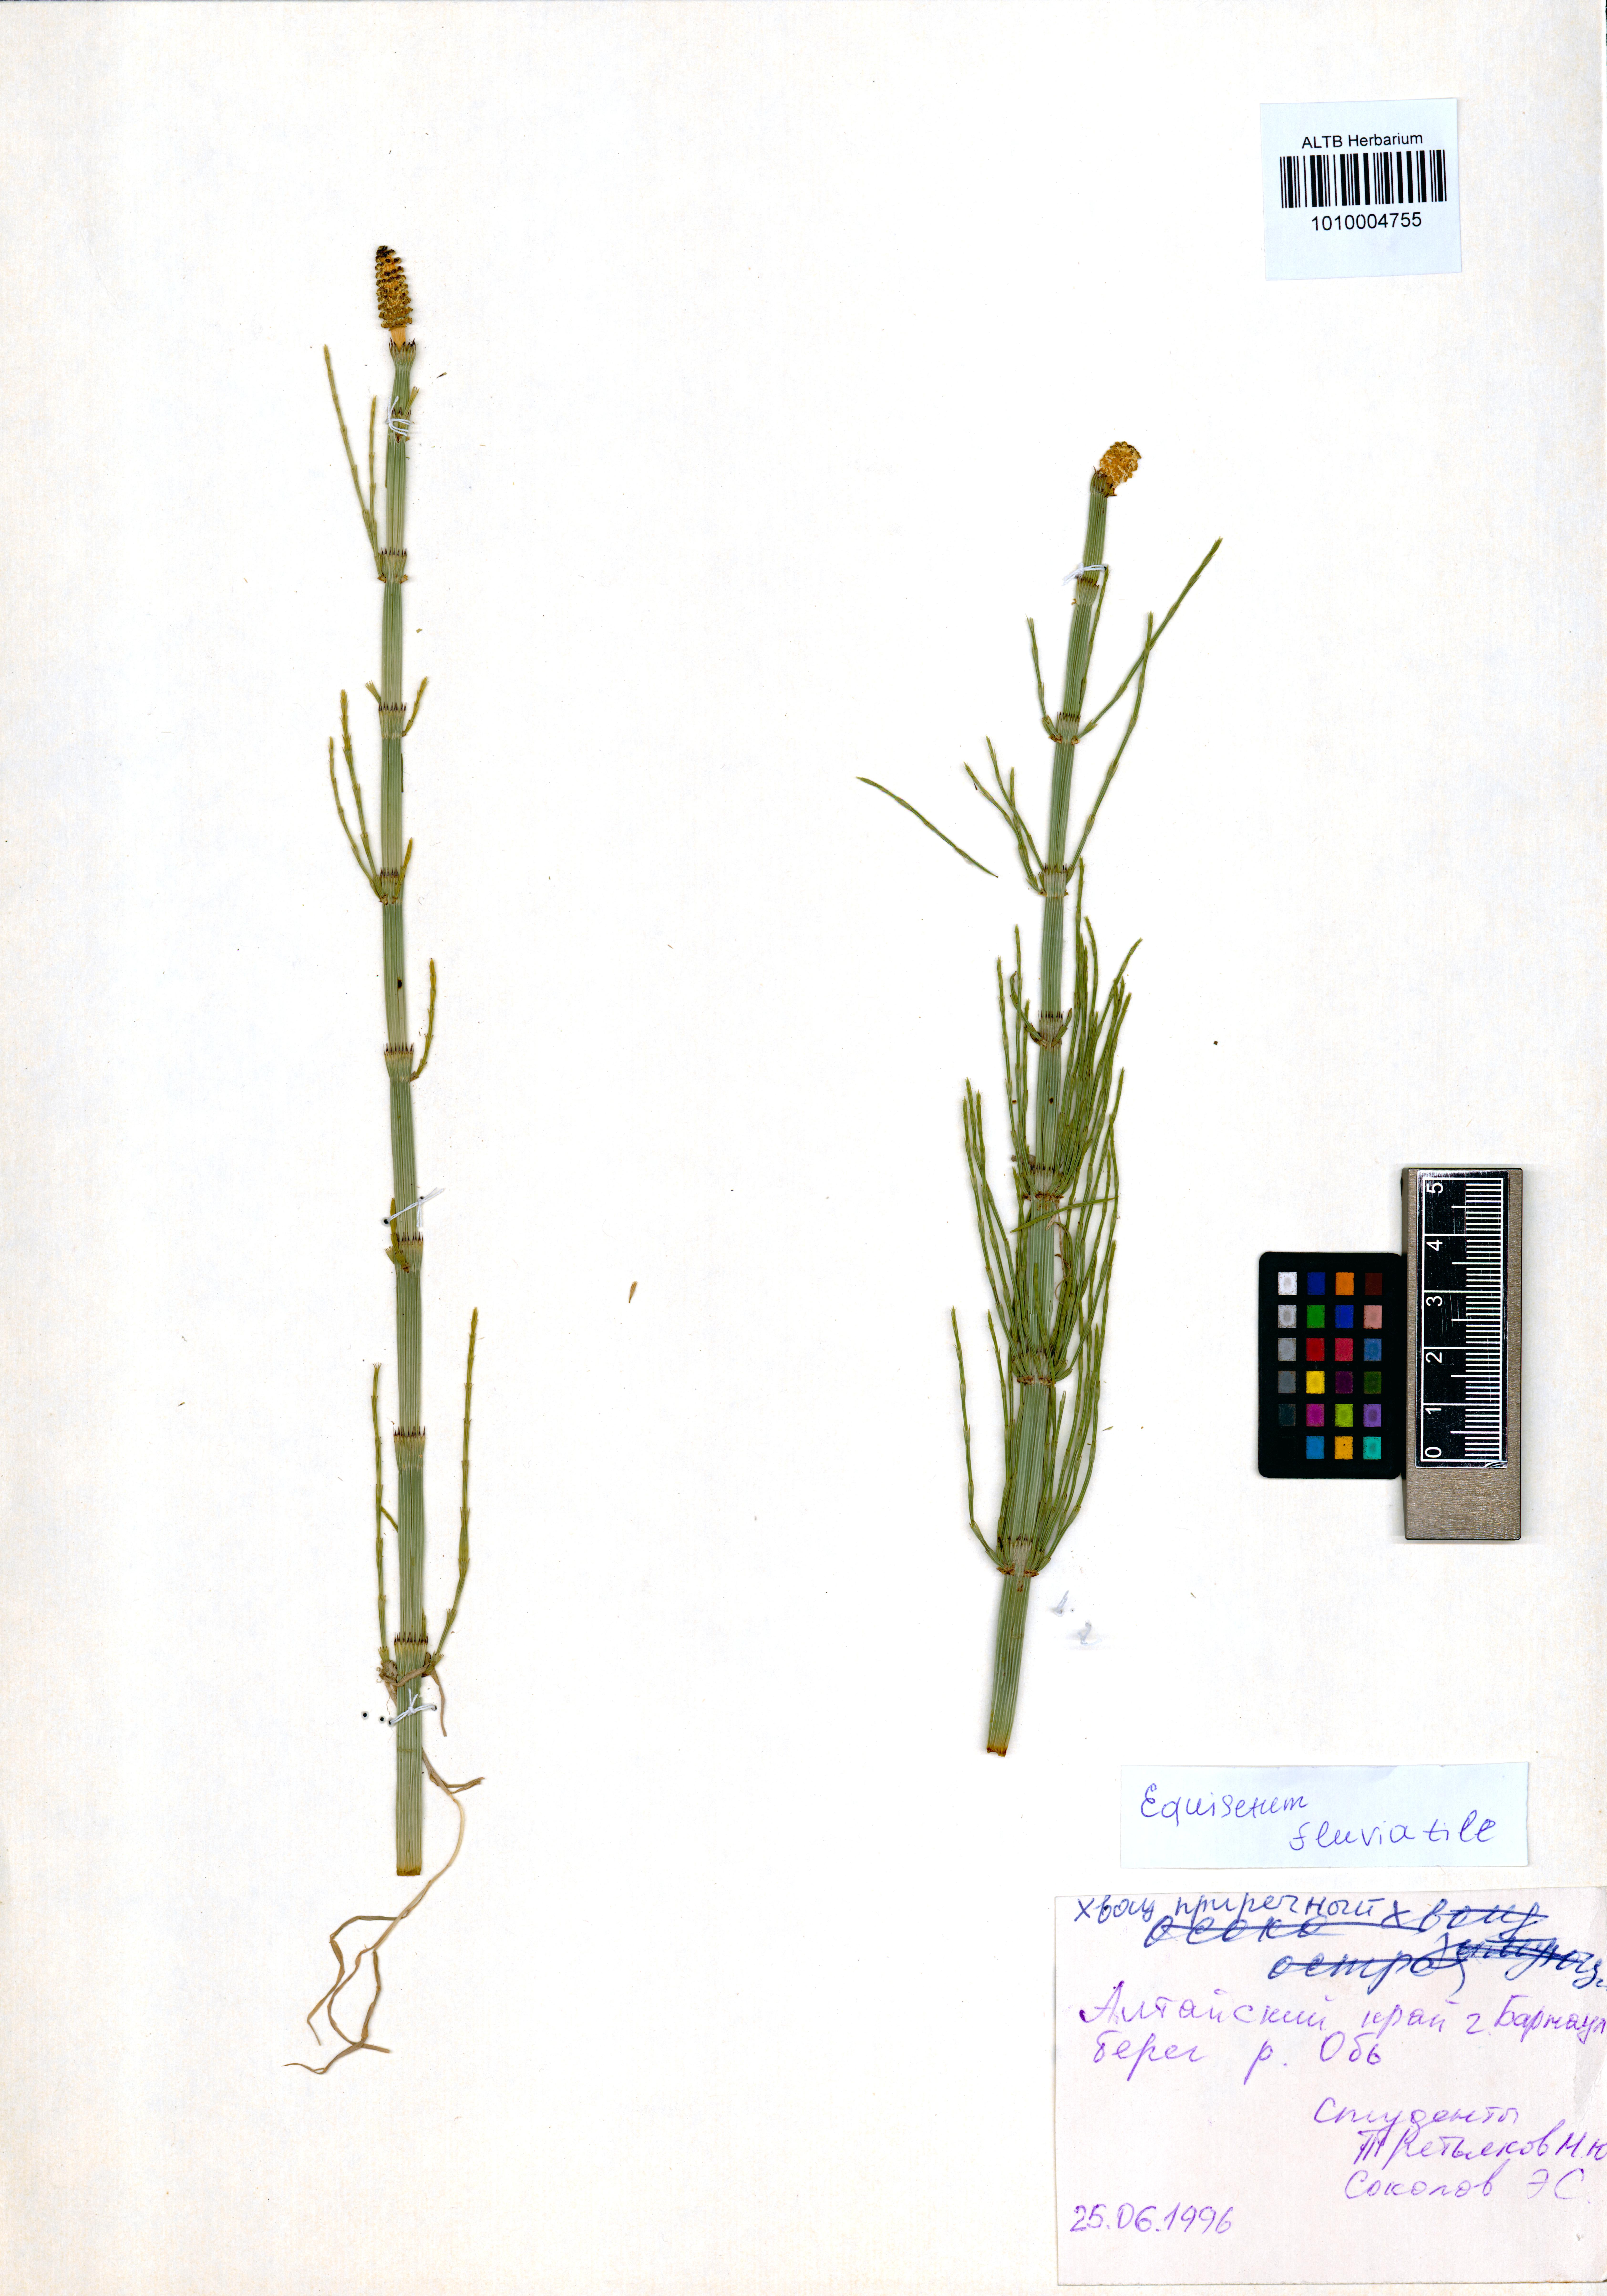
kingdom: Plantae
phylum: Tracheophyta
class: Polypodiopsida
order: Equisetales
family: Equisetaceae
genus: Equisetum
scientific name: Equisetum fluviatile
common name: Water horsetail
